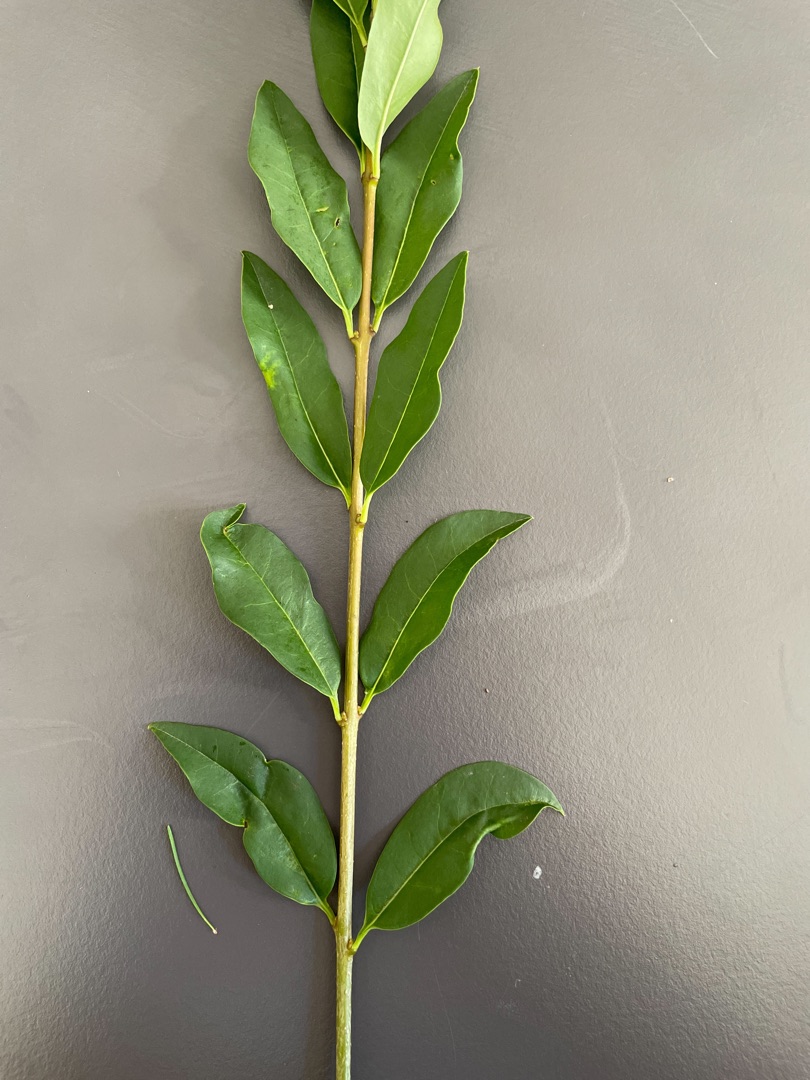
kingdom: Plantae
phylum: Tracheophyta
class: Magnoliopsida
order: Lamiales
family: Oleaceae
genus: Ligustrum
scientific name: Ligustrum vulgare
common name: Liguster
